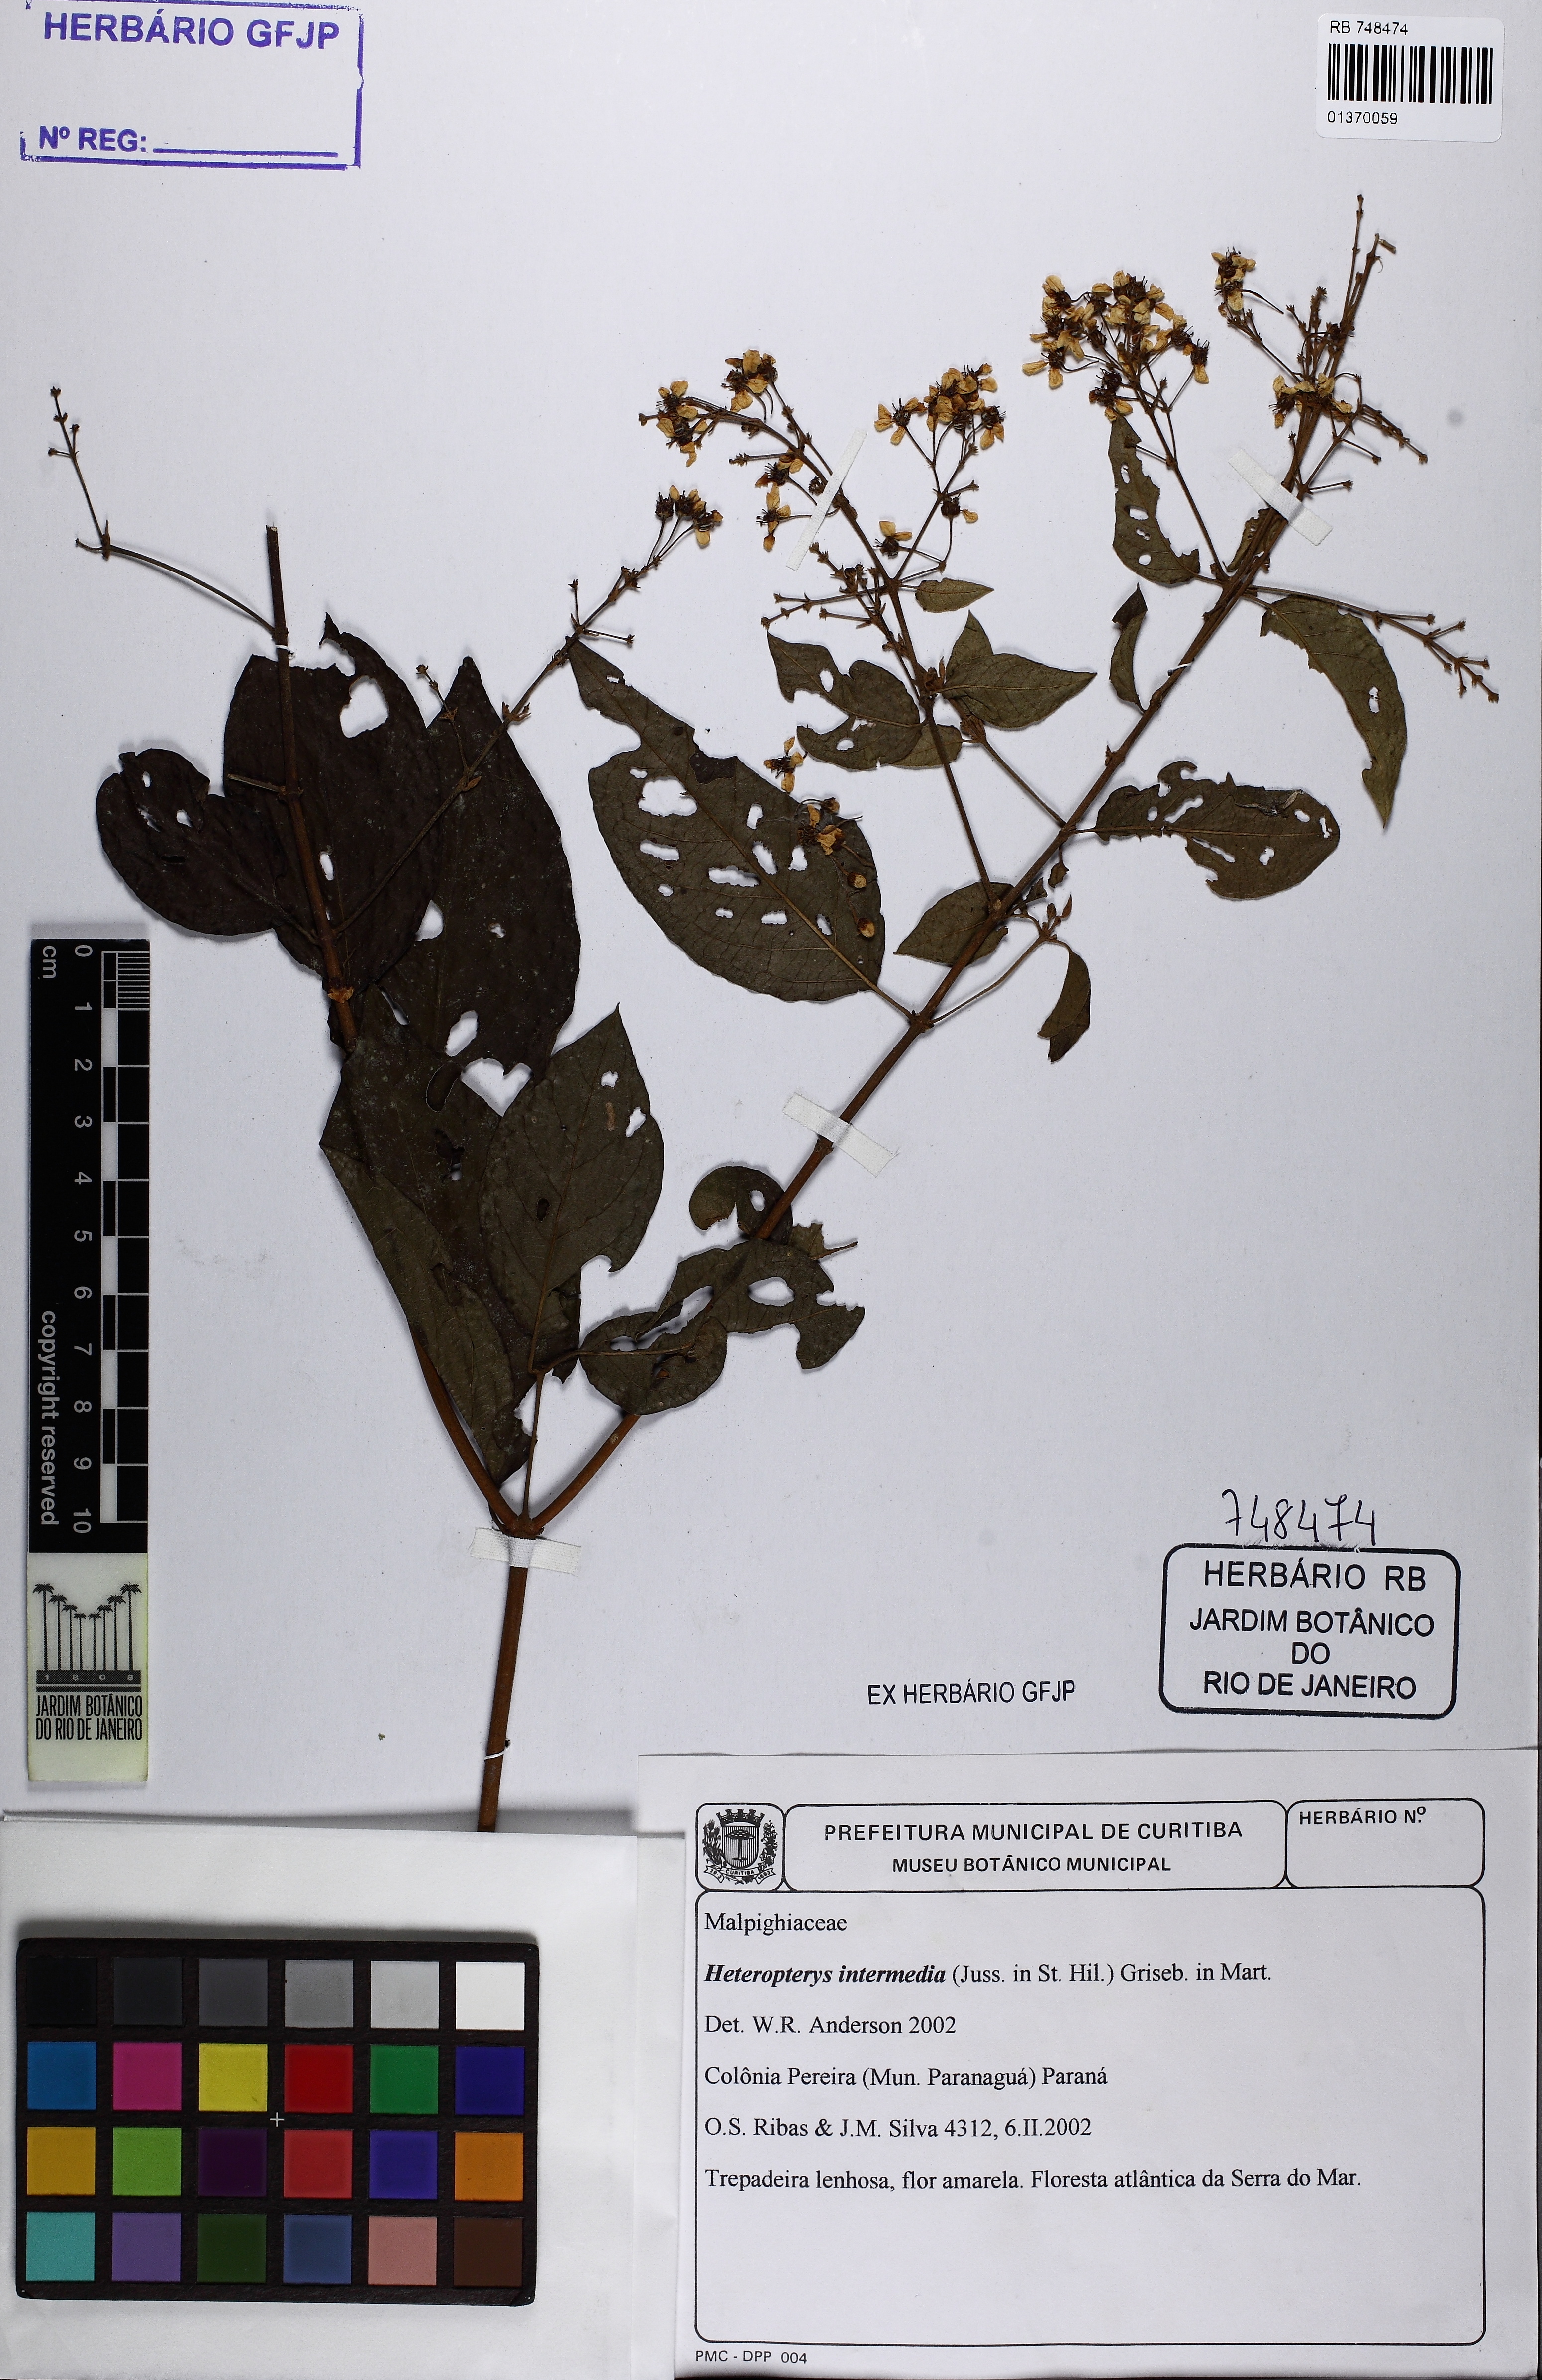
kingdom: Plantae
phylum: Tracheophyta
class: Magnoliopsida
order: Malpighiales
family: Malpighiaceae
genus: Heteropterys
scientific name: Heteropterys intermedia
